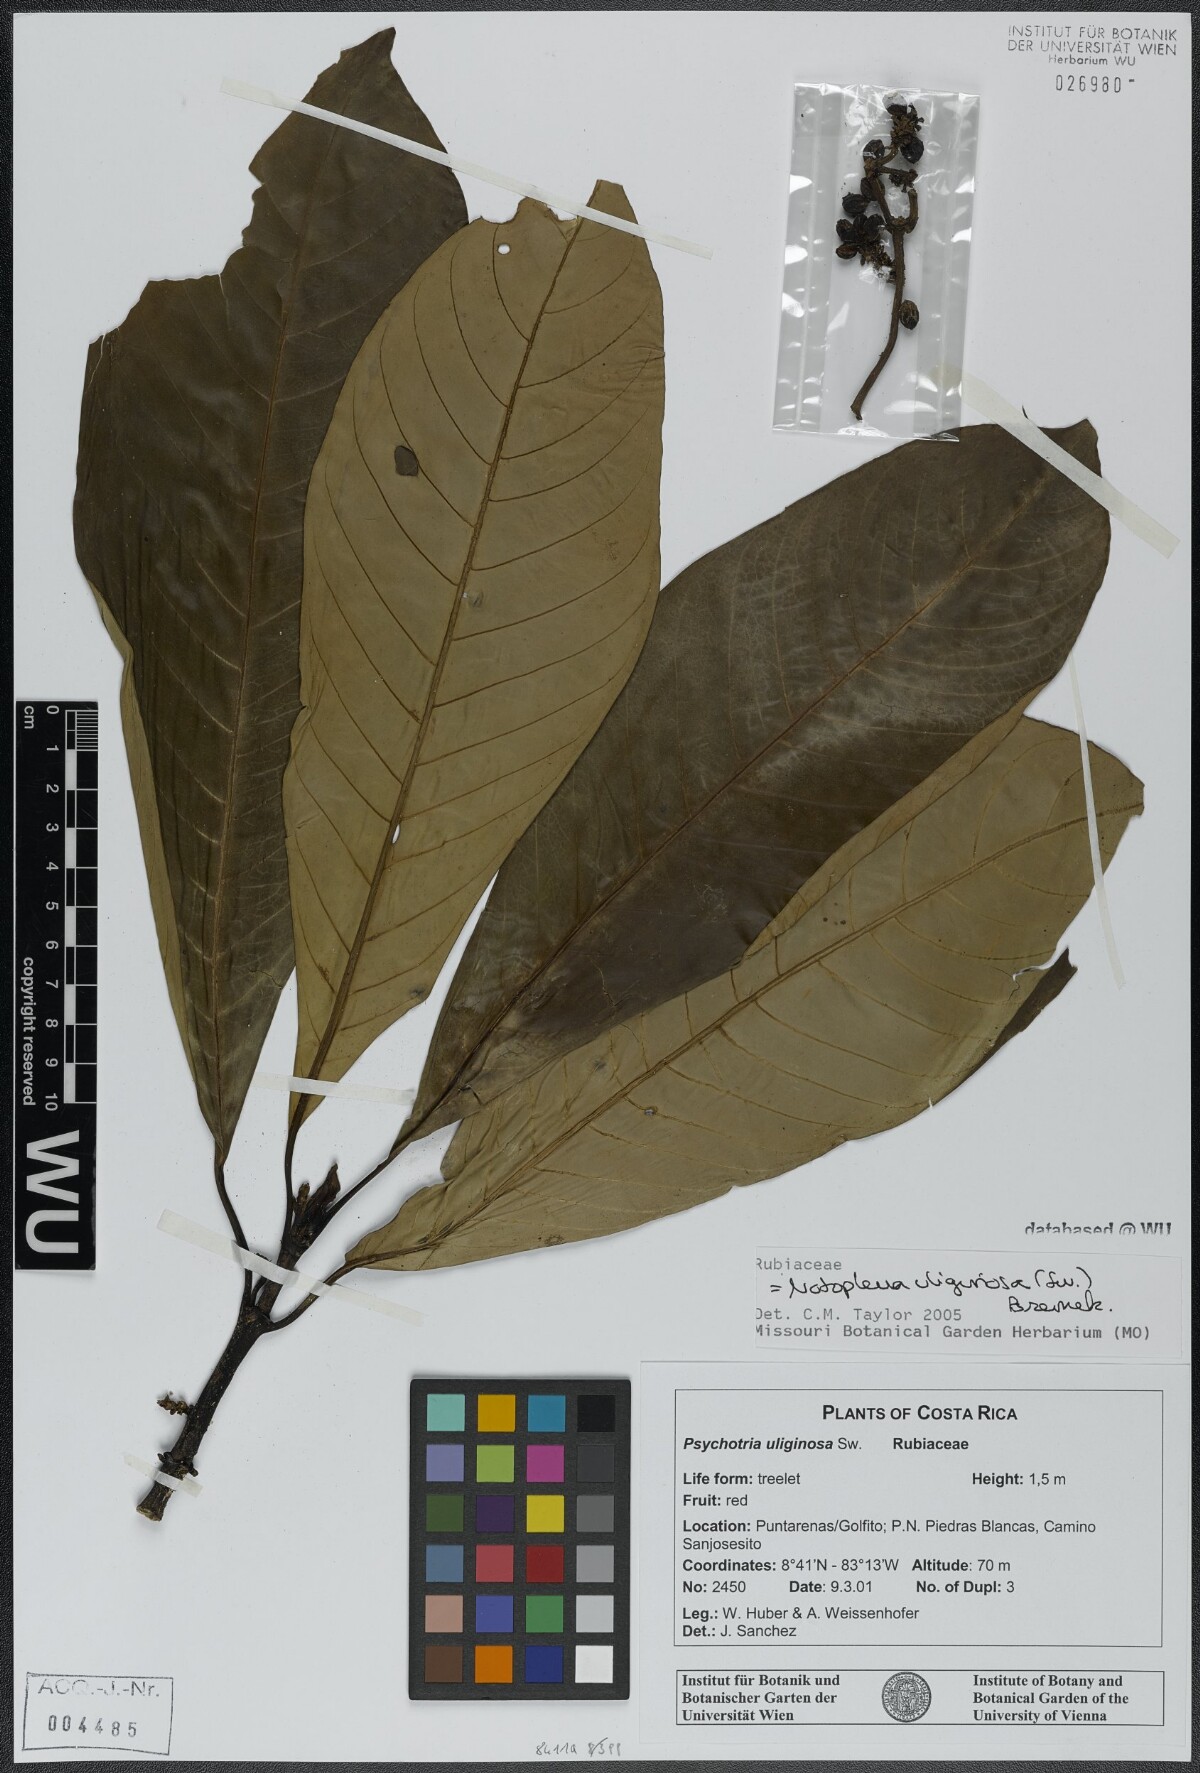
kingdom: Plantae
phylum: Tracheophyta
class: Magnoliopsida
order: Gentianales
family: Rubiaceae
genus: Notopleura
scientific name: Notopleura uliginosa
